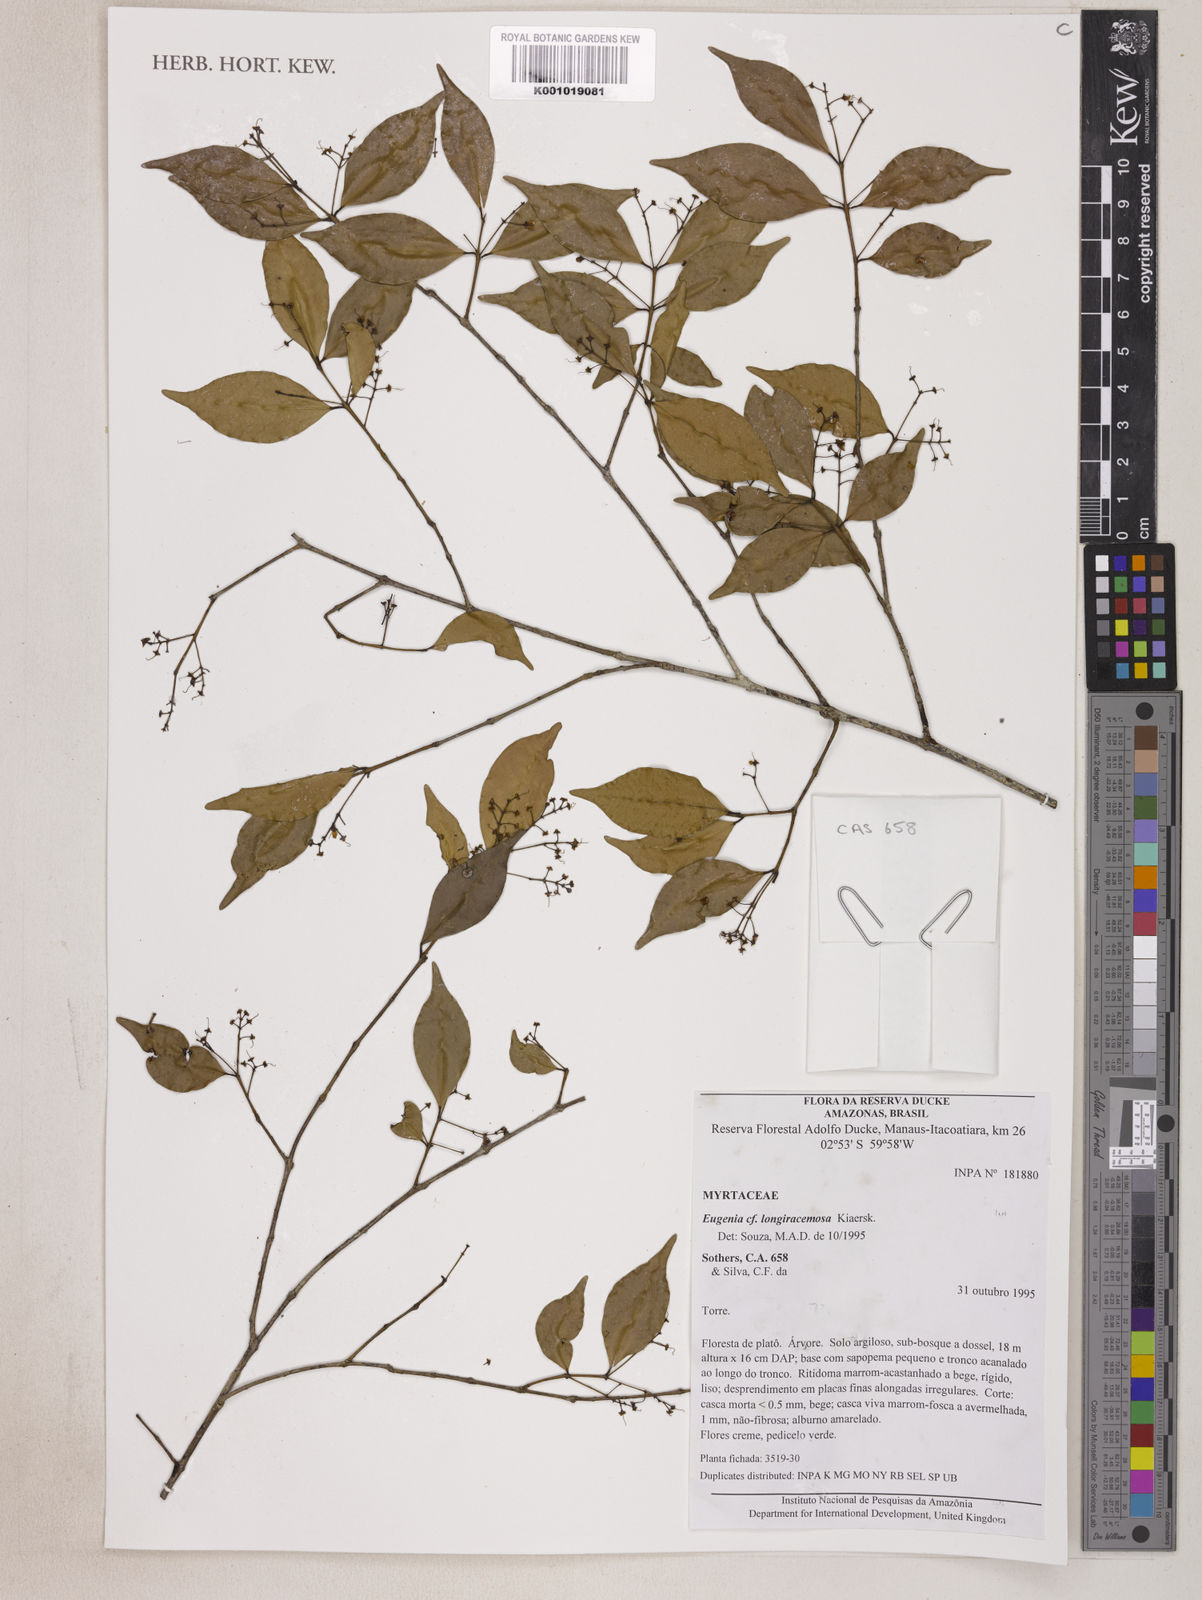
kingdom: Plantae
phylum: Tracheophyta
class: Magnoliopsida
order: Myrtales
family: Myrtaceae
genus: Eugenia
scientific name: Eugenia longiracemosa
